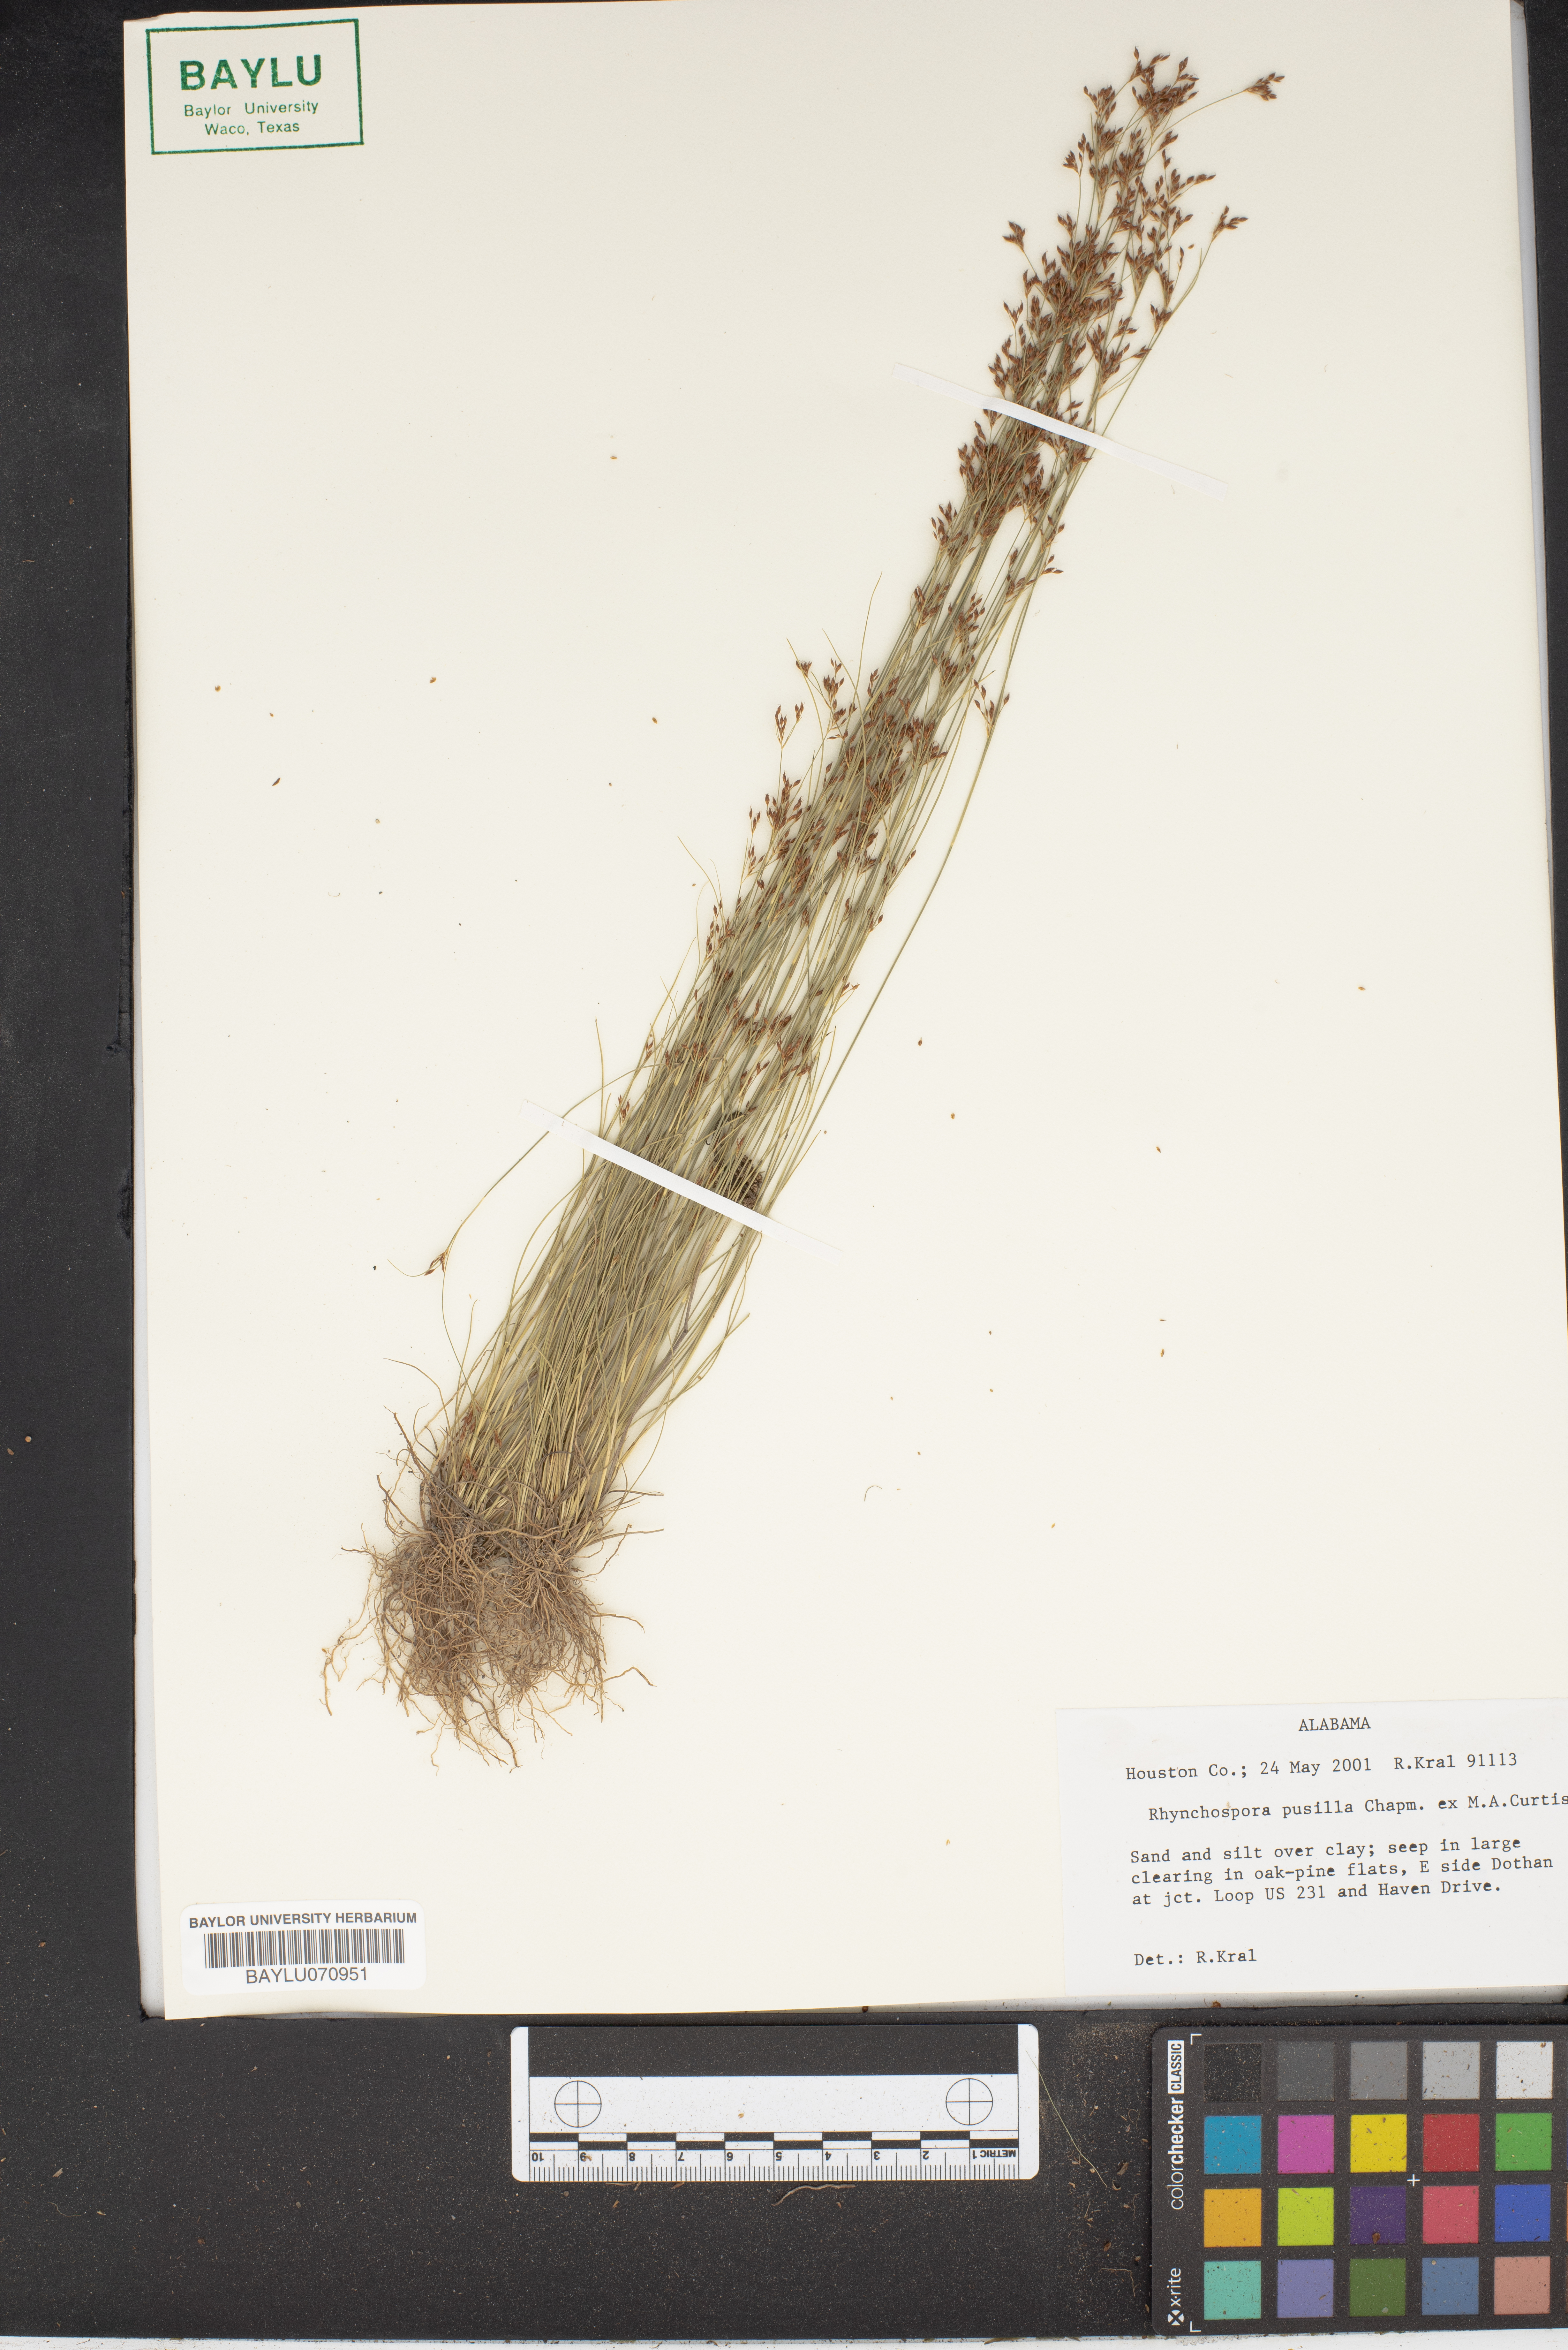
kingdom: Plantae
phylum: Tracheophyta
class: Liliopsida
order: Poales
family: Cyperaceae
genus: Rhynchospora
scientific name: Rhynchospora pusilla
